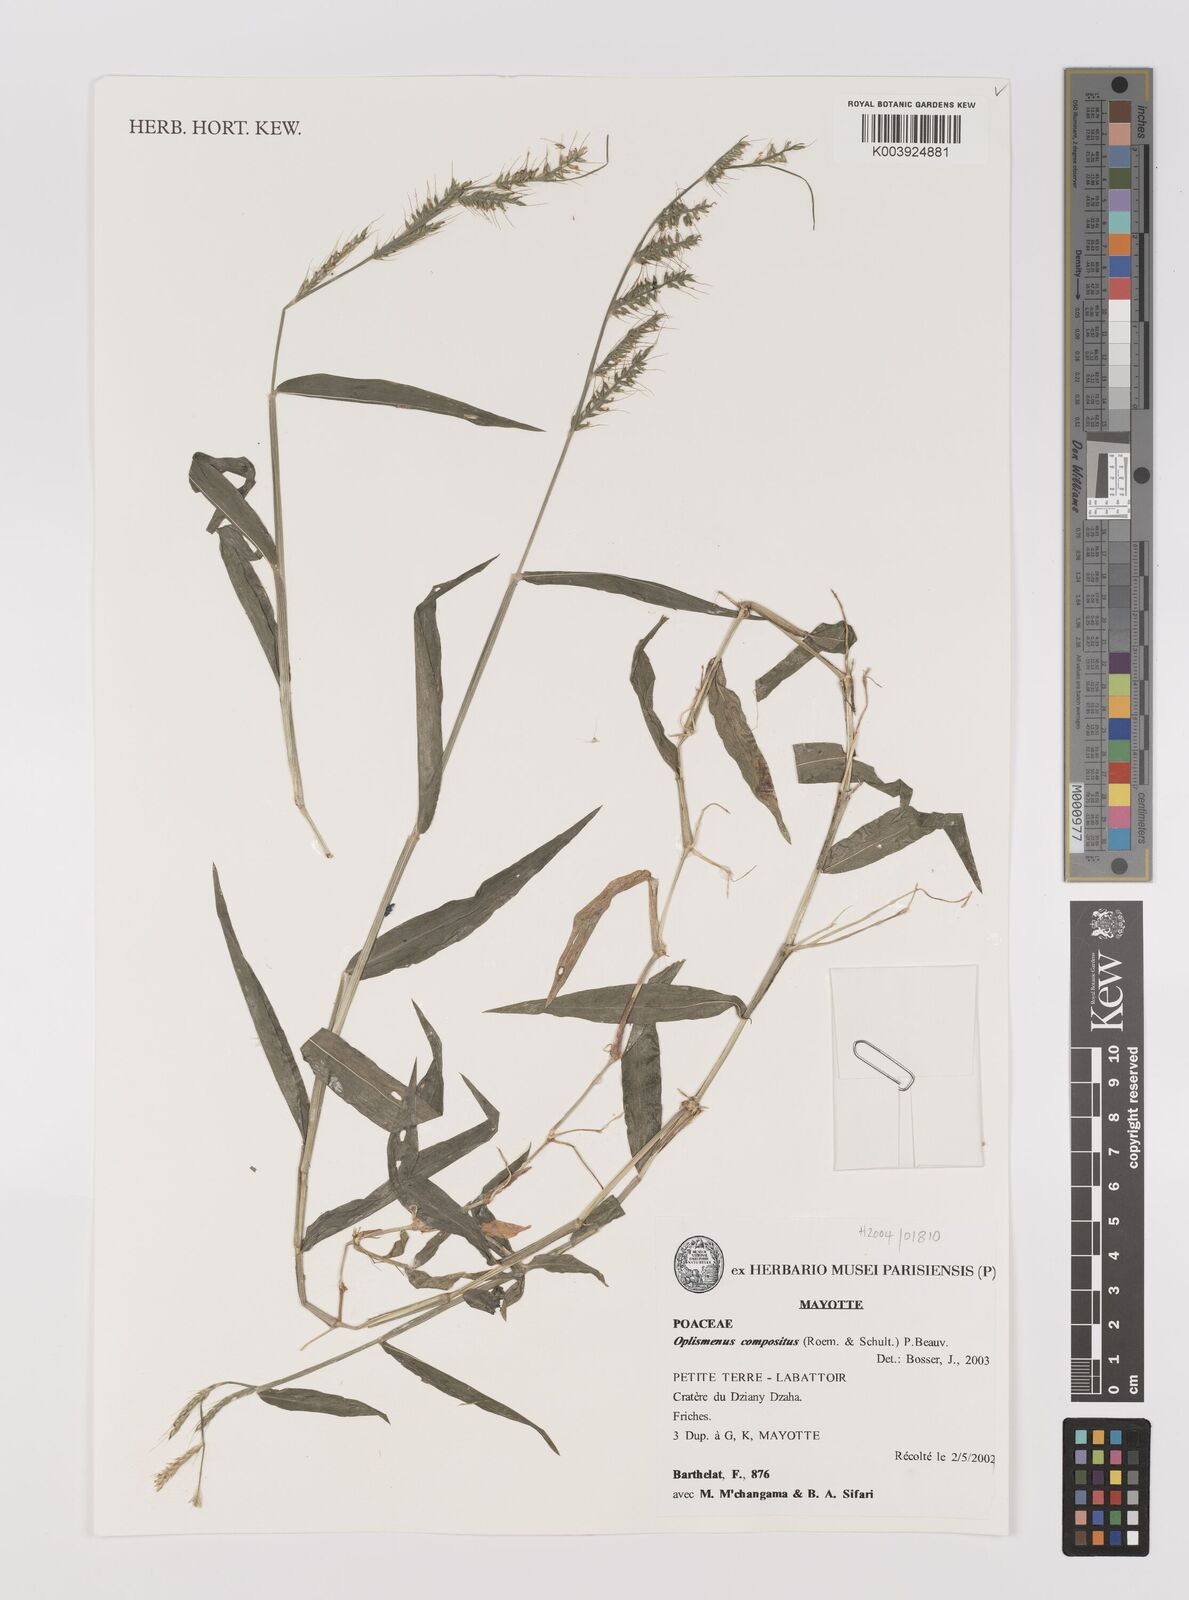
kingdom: Plantae
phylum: Tracheophyta
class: Liliopsida
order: Poales
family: Poaceae
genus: Oplismenus
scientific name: Oplismenus compositus
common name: Running mountain grass
